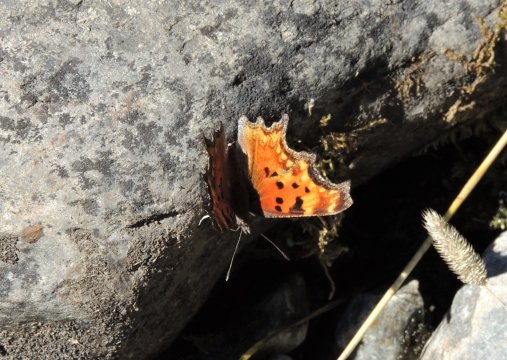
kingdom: Animalia
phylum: Arthropoda
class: Insecta
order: Lepidoptera
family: Nymphalidae
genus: Polygonia
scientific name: Polygonia gracilis
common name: Hoary Comma
